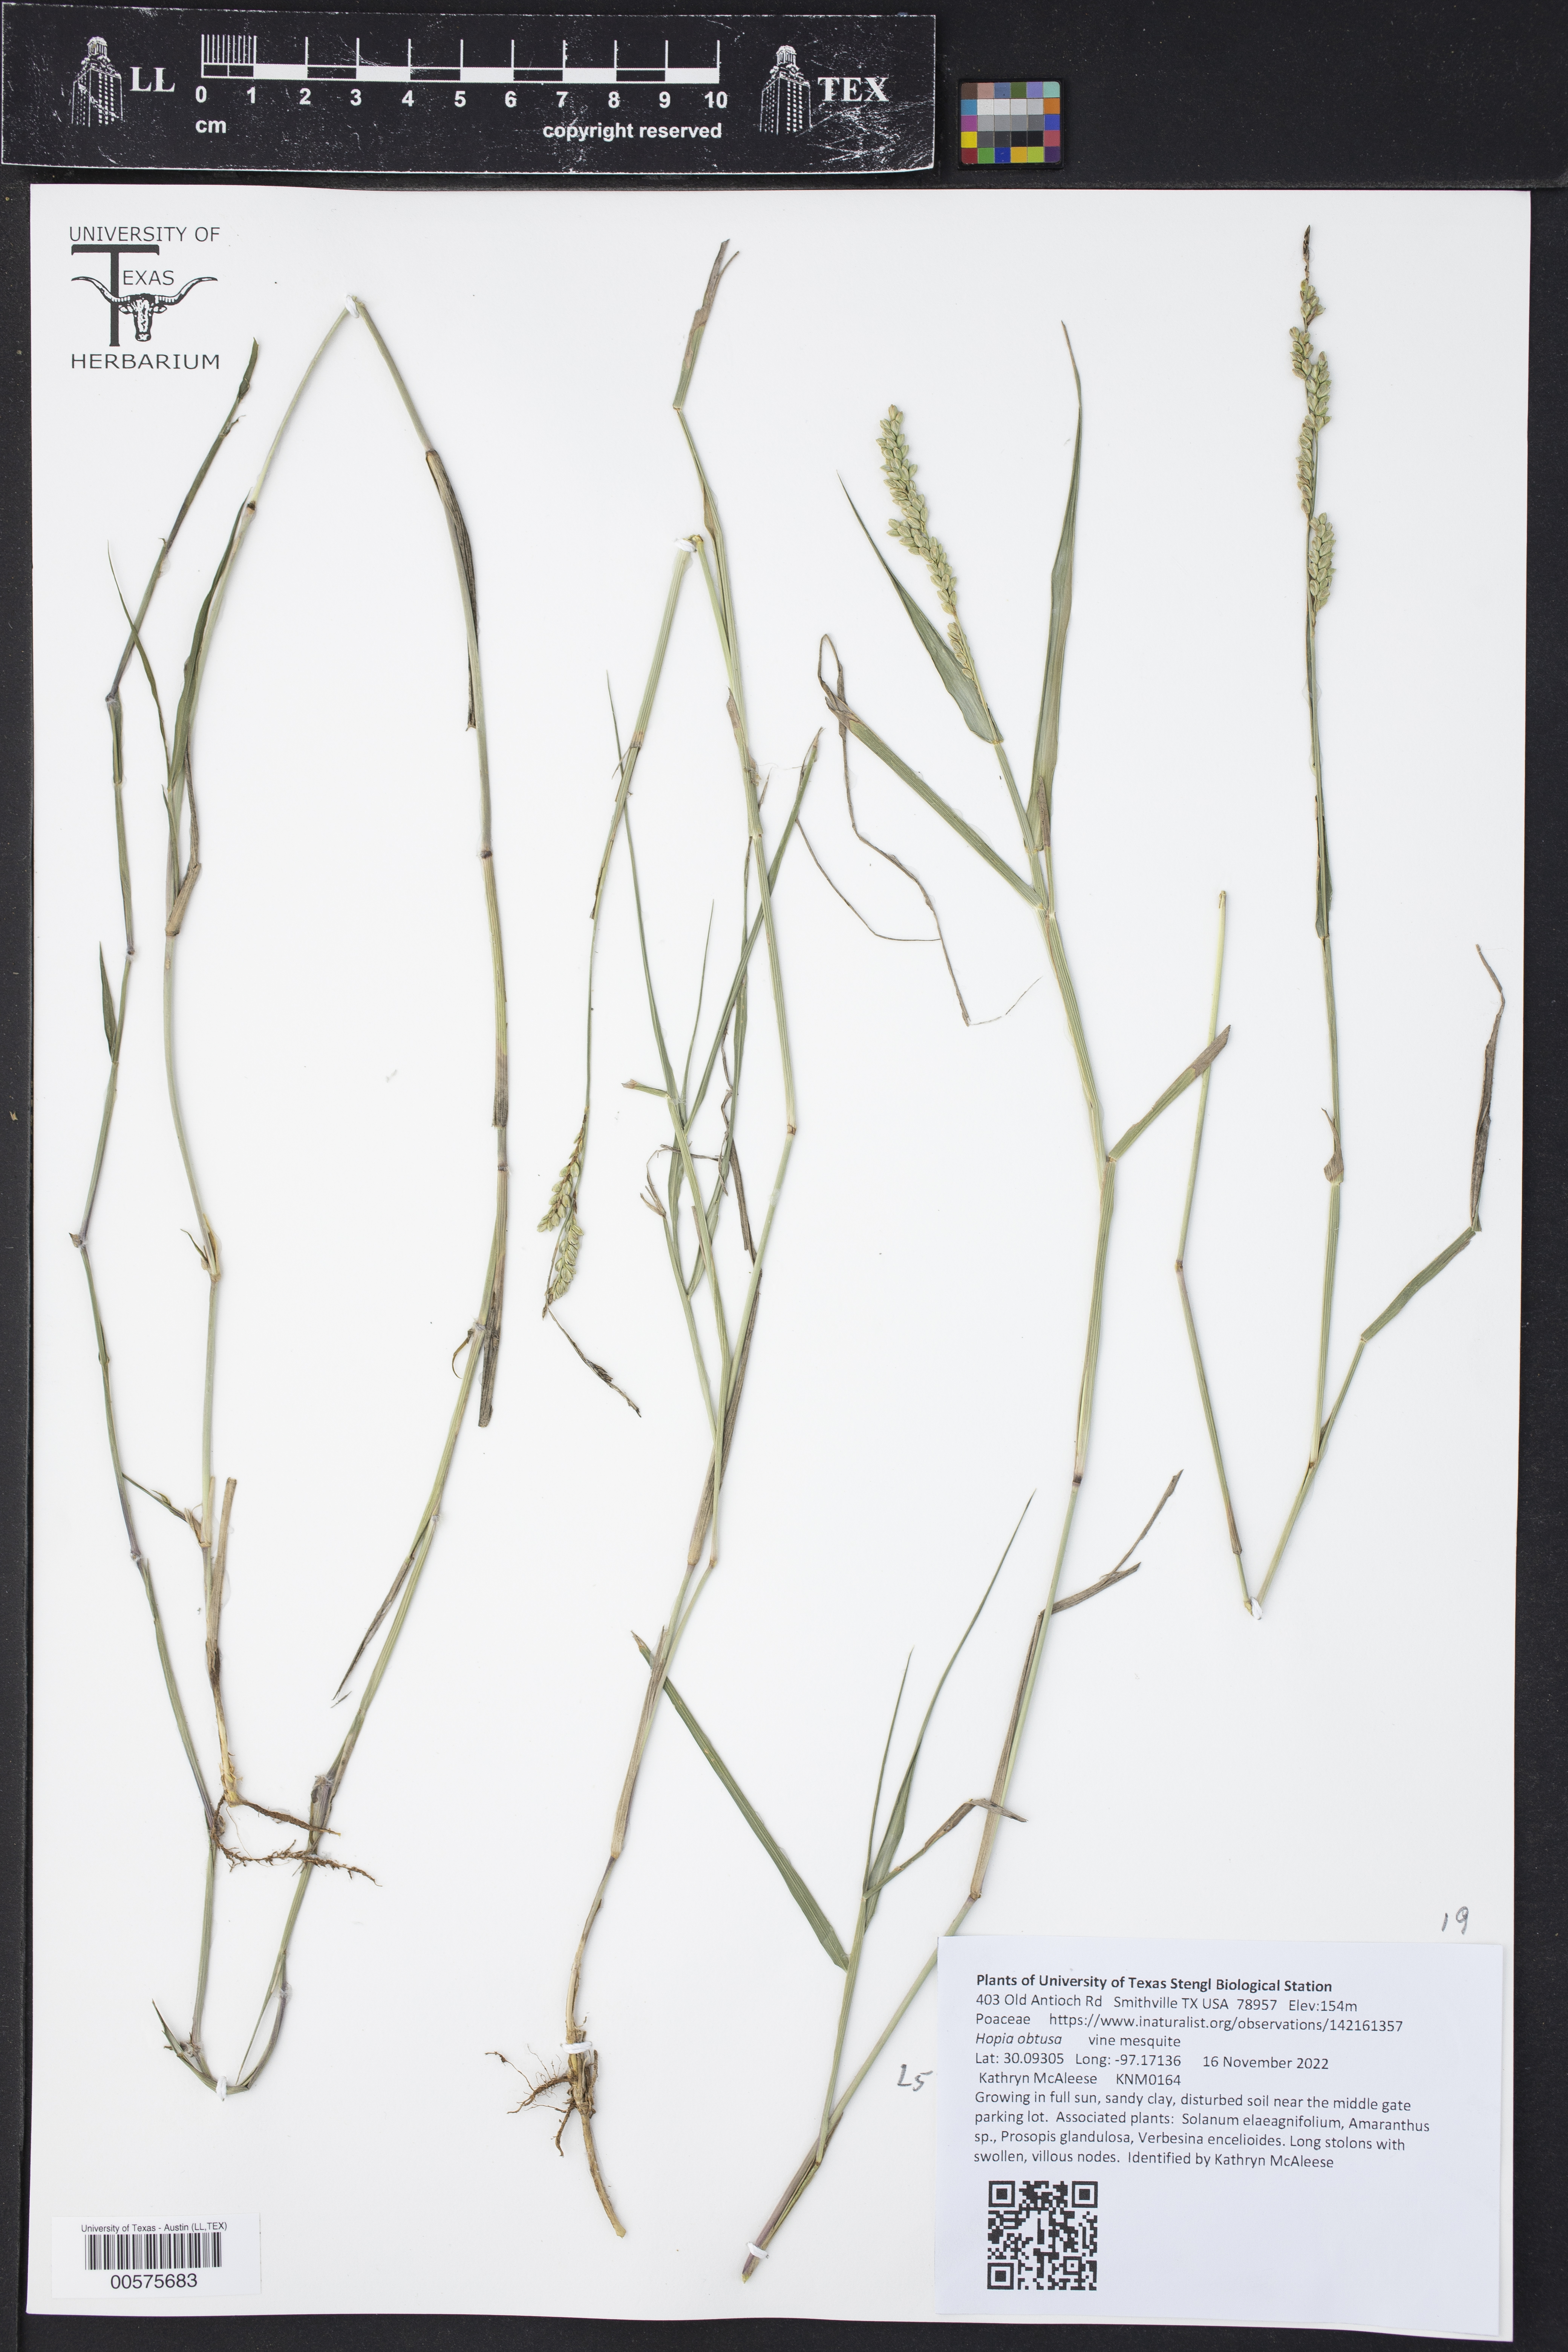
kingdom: Plantae
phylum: Tracheophyta
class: Liliopsida
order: Poales
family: Poaceae
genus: Hopia
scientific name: Hopia obtusa
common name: Vine-mesquite
